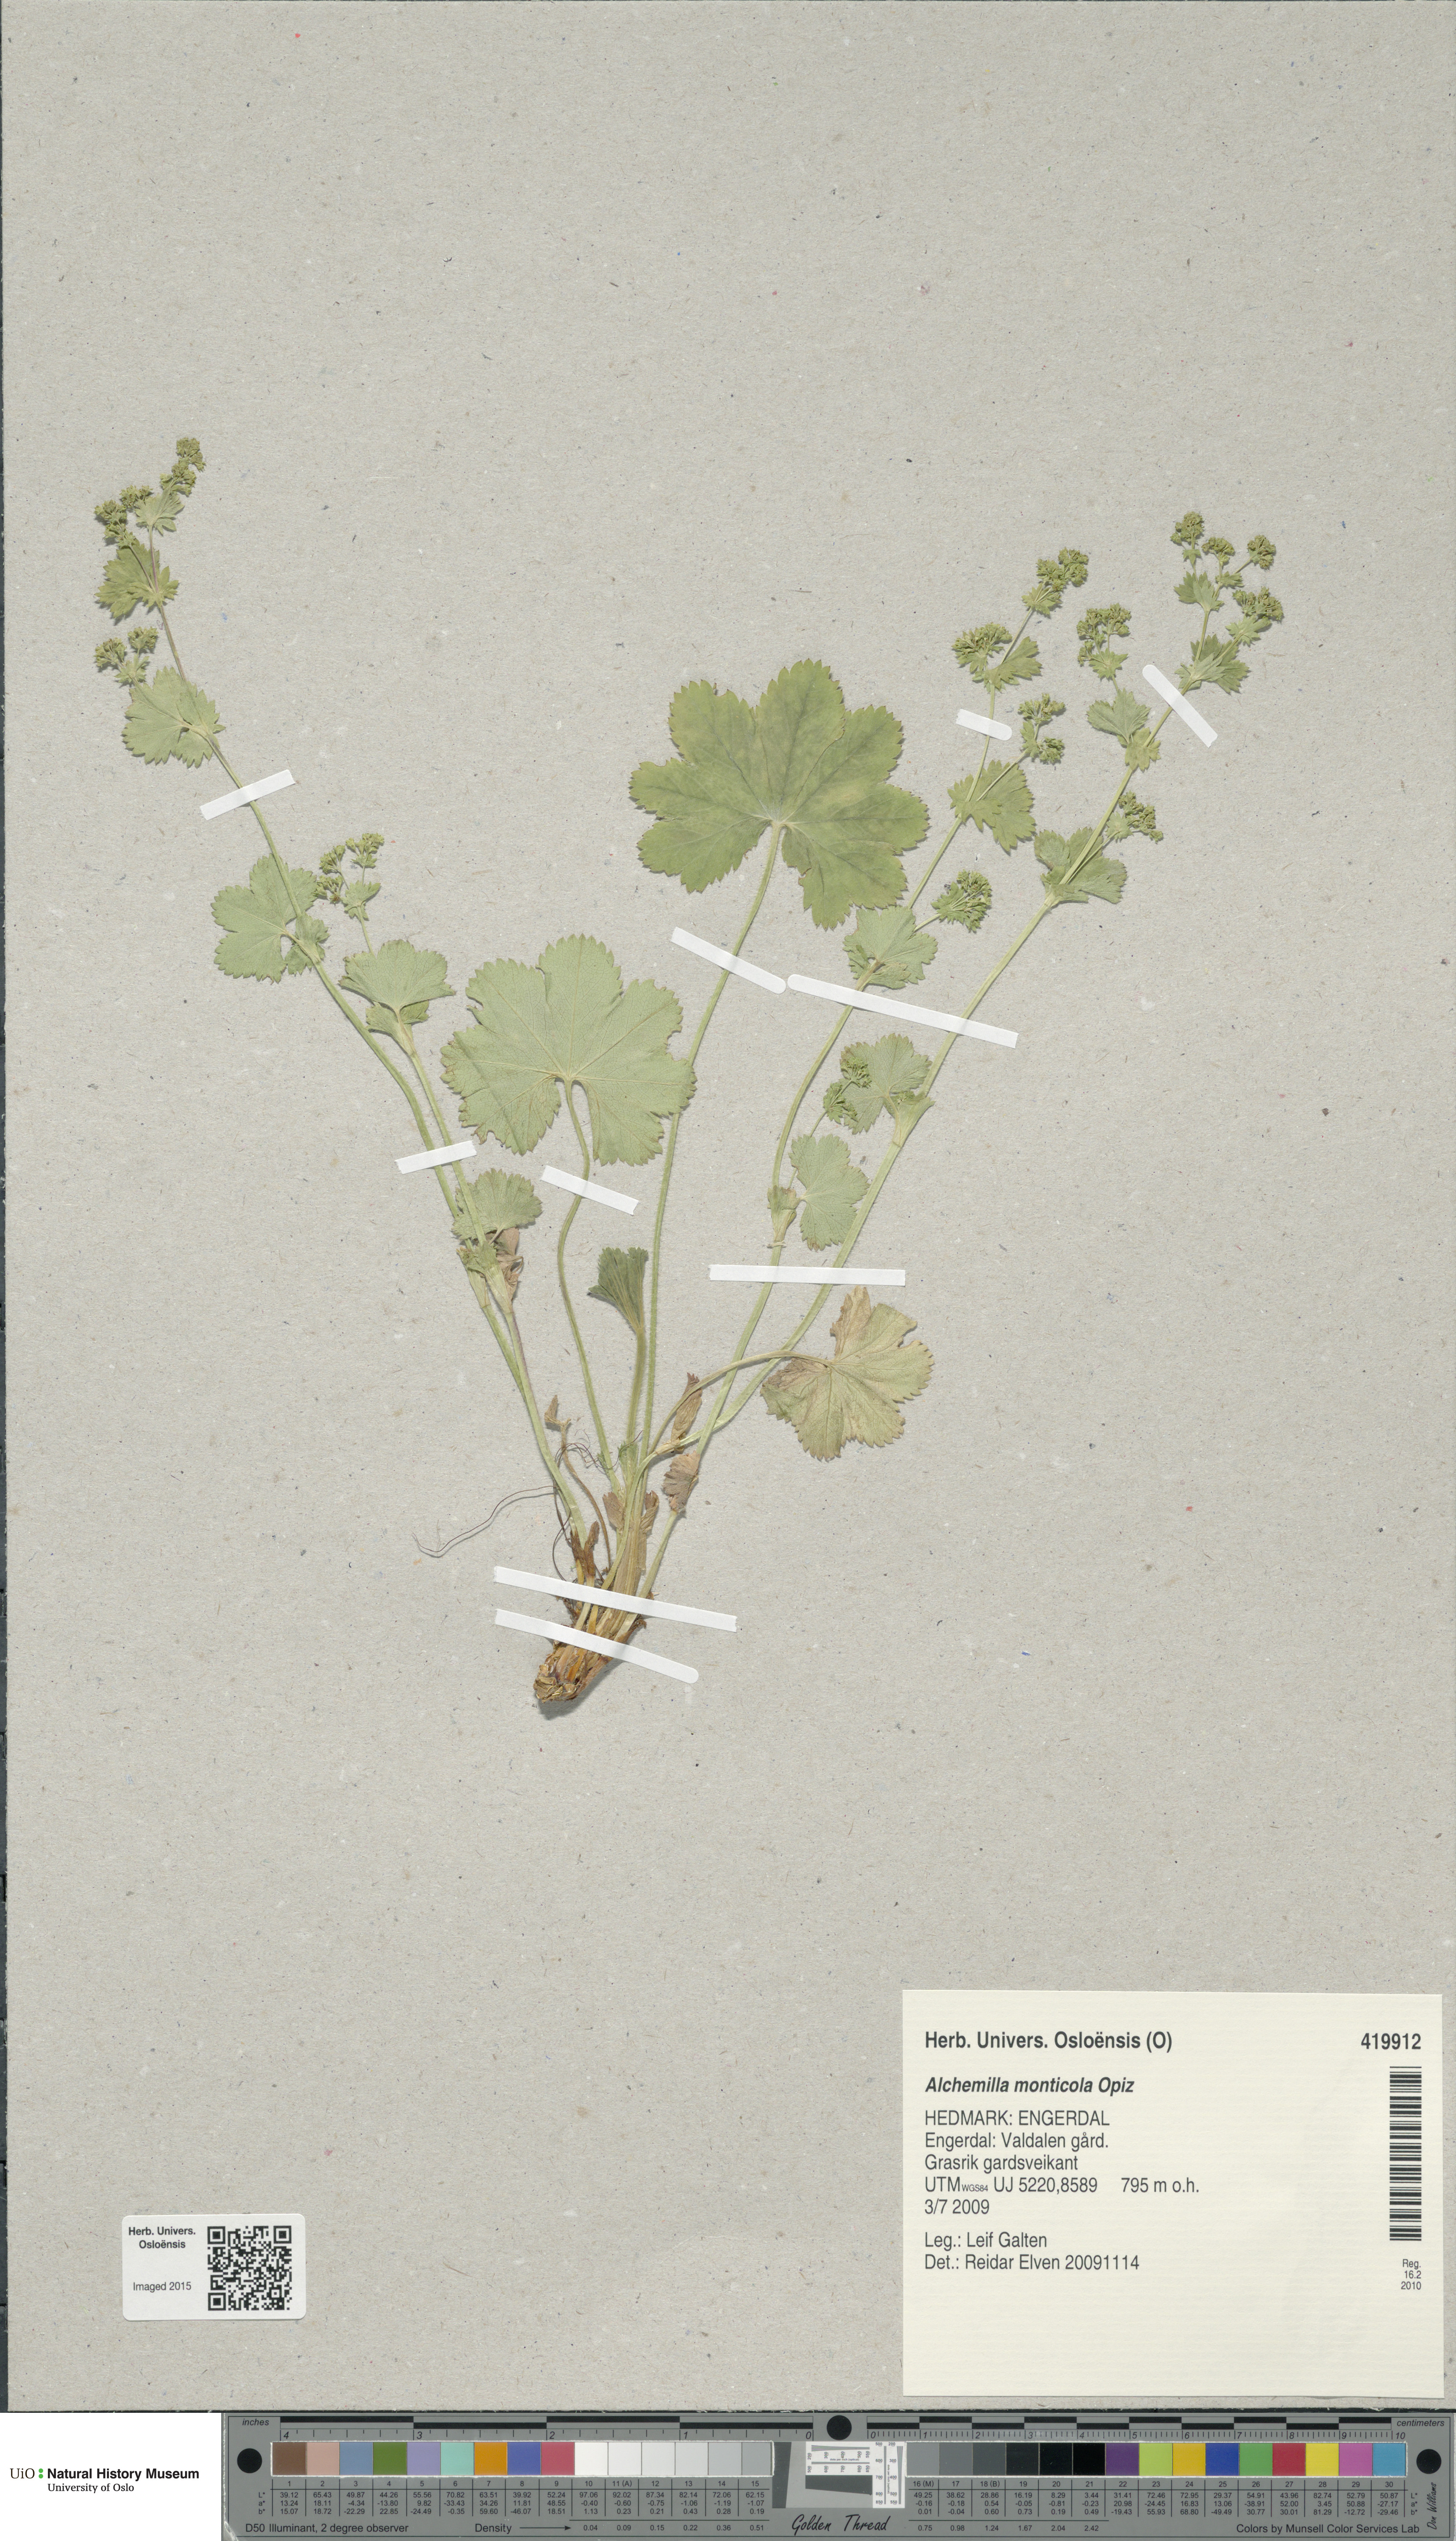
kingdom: Plantae
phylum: Tracheophyta
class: Magnoliopsida
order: Rosales
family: Rosaceae
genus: Alchemilla
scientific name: Alchemilla monticola
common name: Hairy lady's mantle
